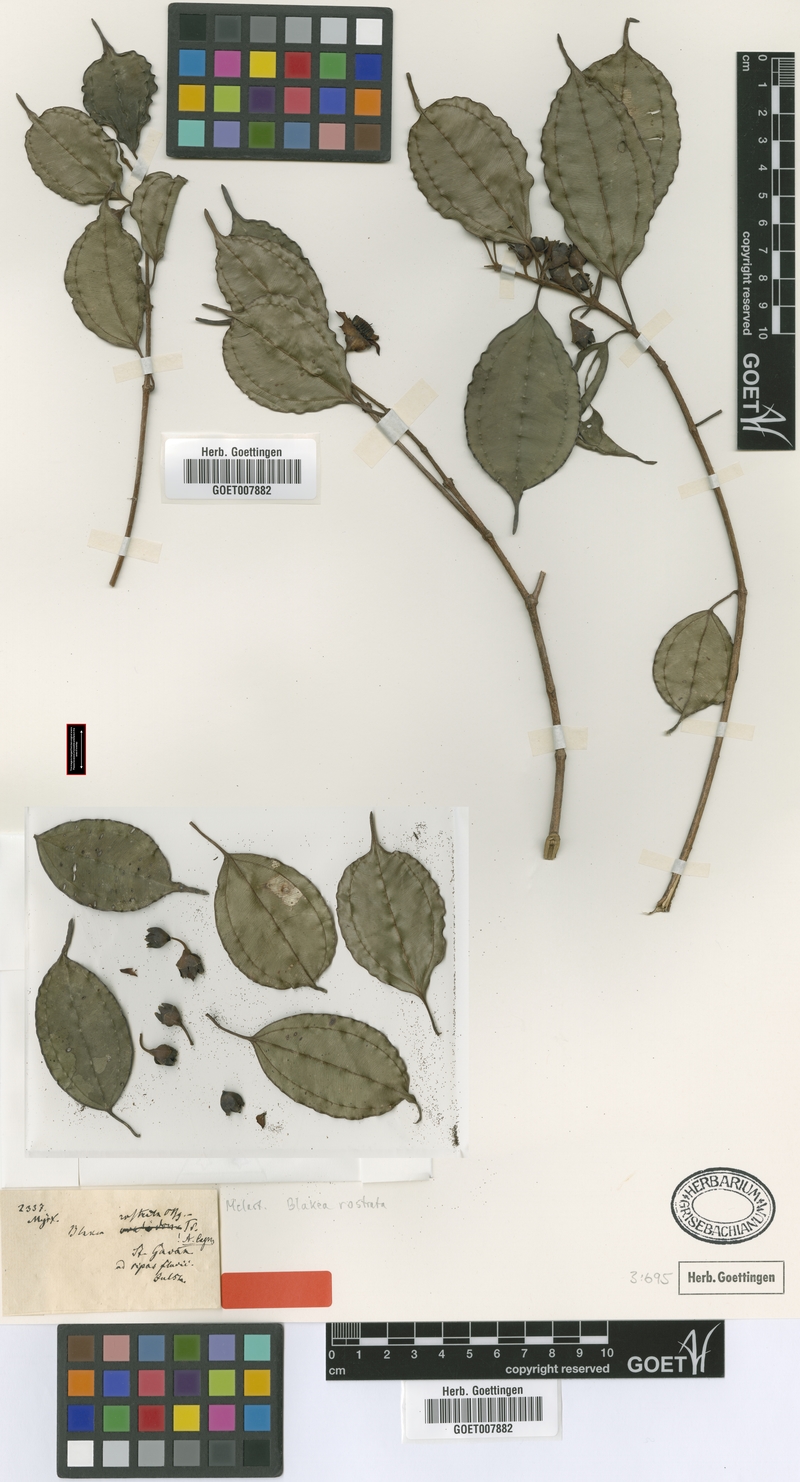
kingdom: Plantae
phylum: Tracheophyta
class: Magnoliopsida
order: Myrtales
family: Melastomataceae
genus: Blakea
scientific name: Blakea rostrata
